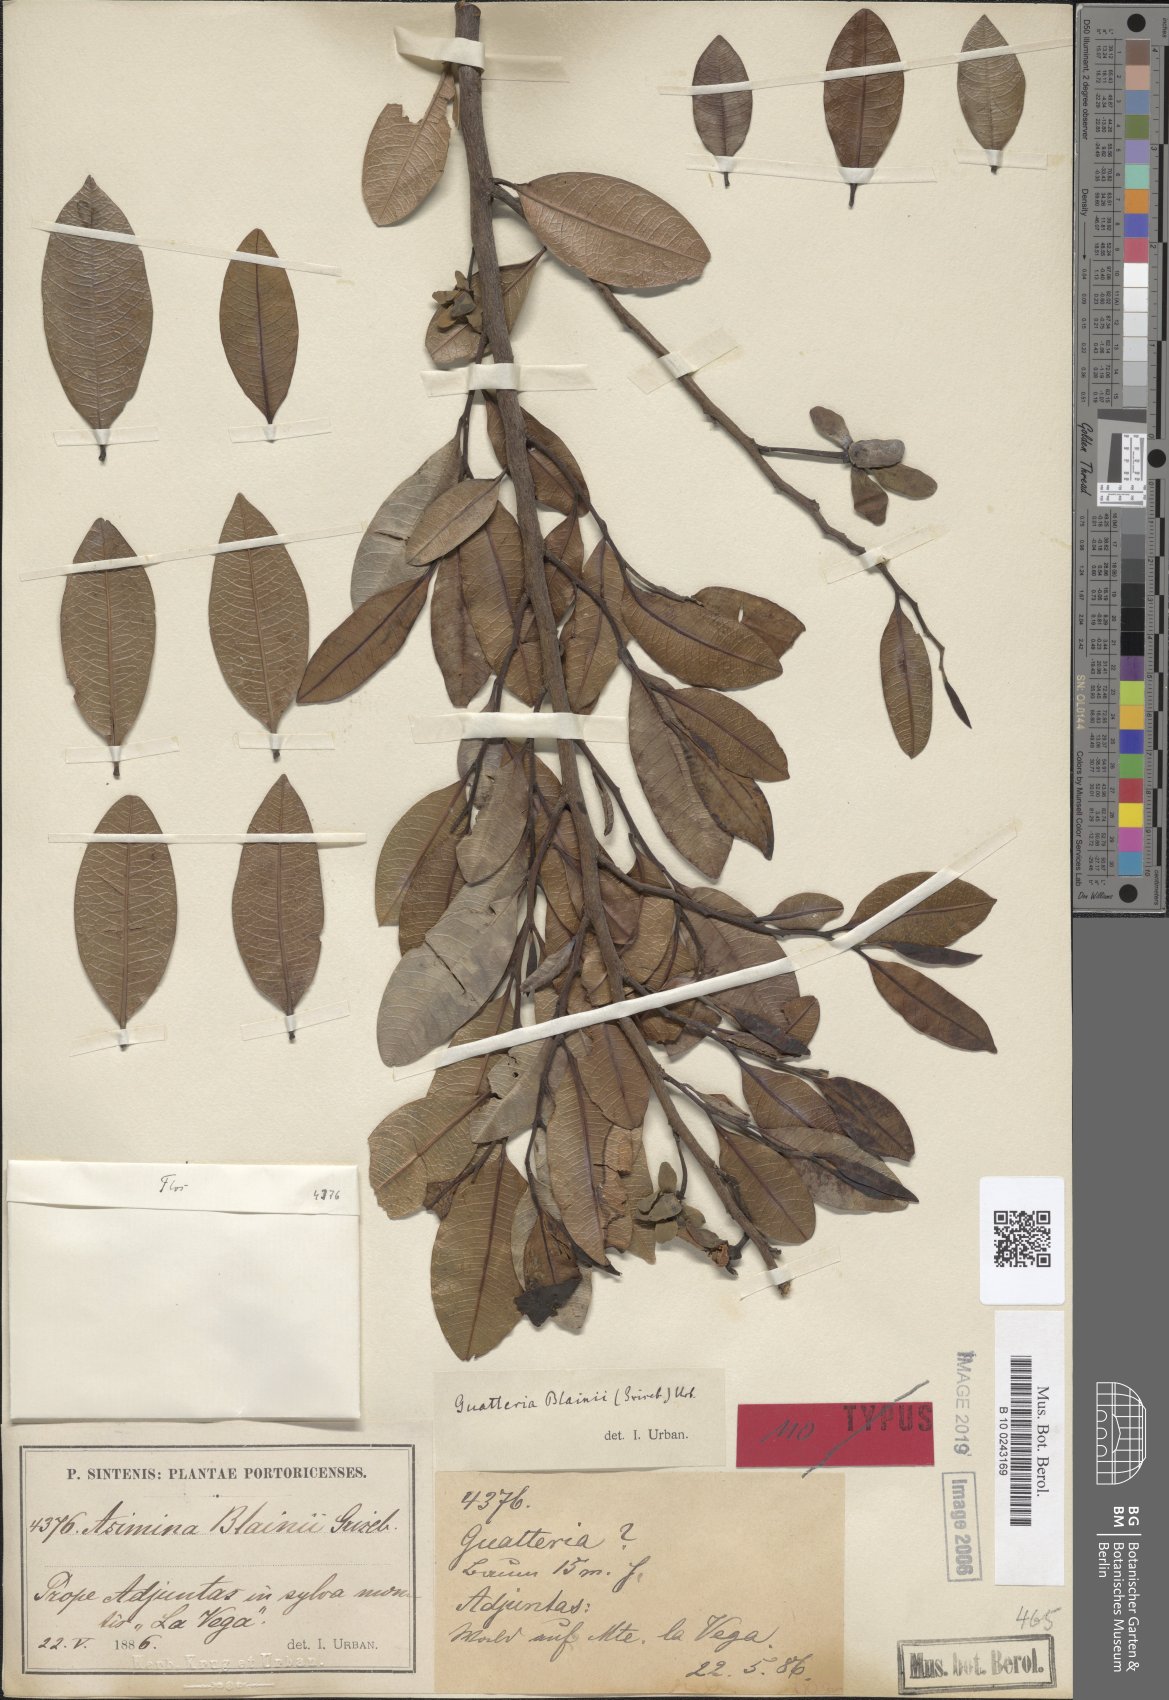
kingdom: Plantae
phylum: Tracheophyta
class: Magnoliopsida
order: Magnoliales
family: Annonaceae
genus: Guatteria
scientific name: Guatteria blainii
